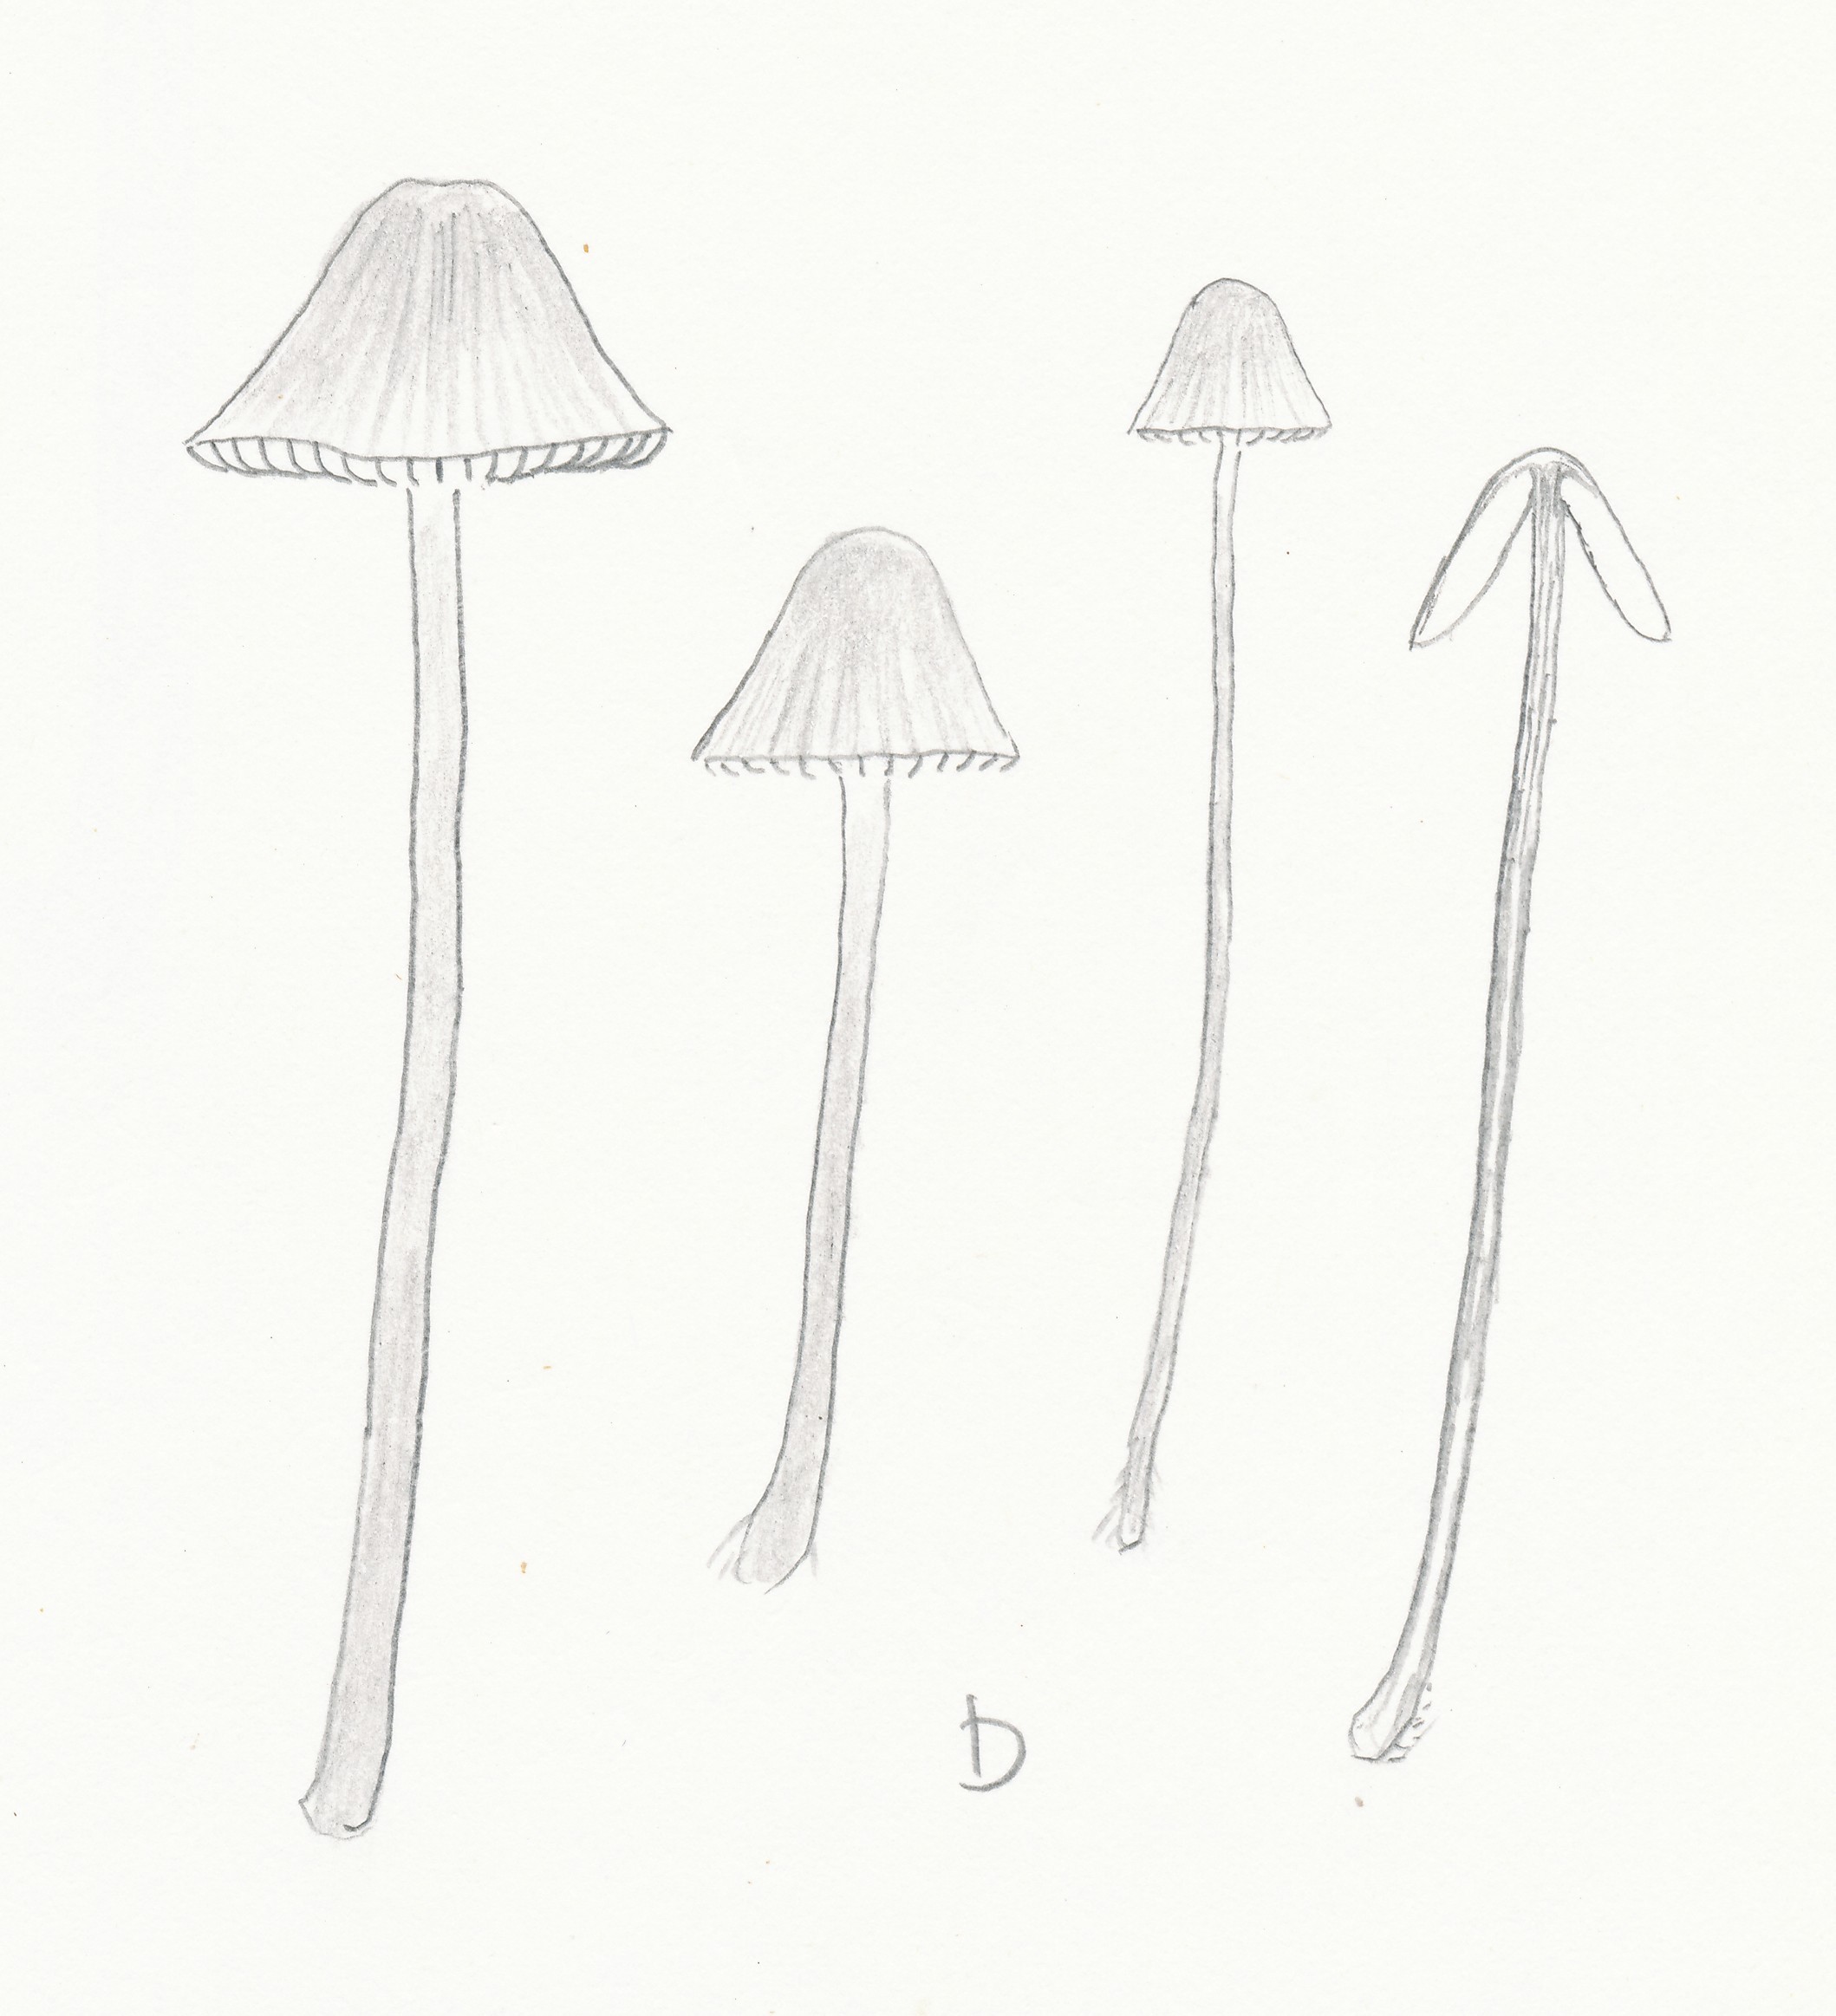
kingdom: Fungi
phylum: Basidiomycota
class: Agaricomycetes
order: Agaricales
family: Porotheleaceae
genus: Phloeomana
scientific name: Phloeomana speirea
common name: kvist-huesvamp
